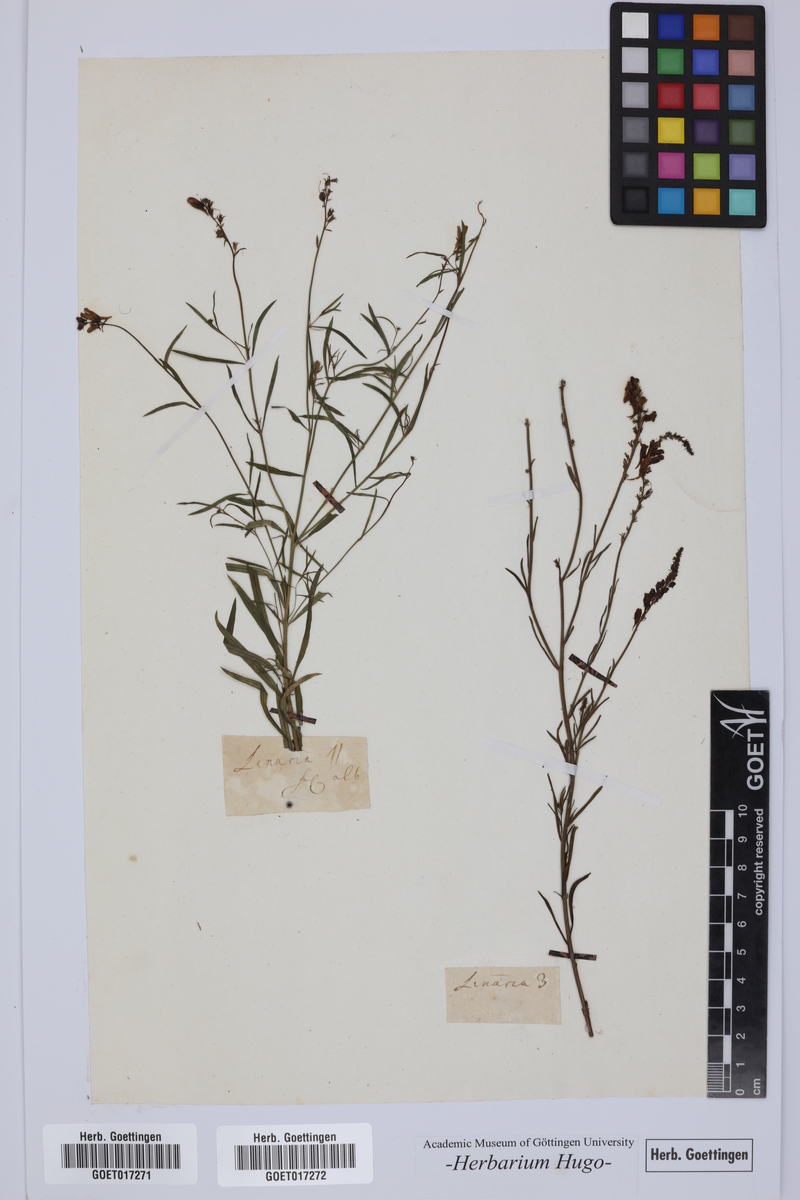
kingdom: Plantae
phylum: Tracheophyta
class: Magnoliopsida
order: Lamiales
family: Plantaginaceae
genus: Linaria
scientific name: Linaria
